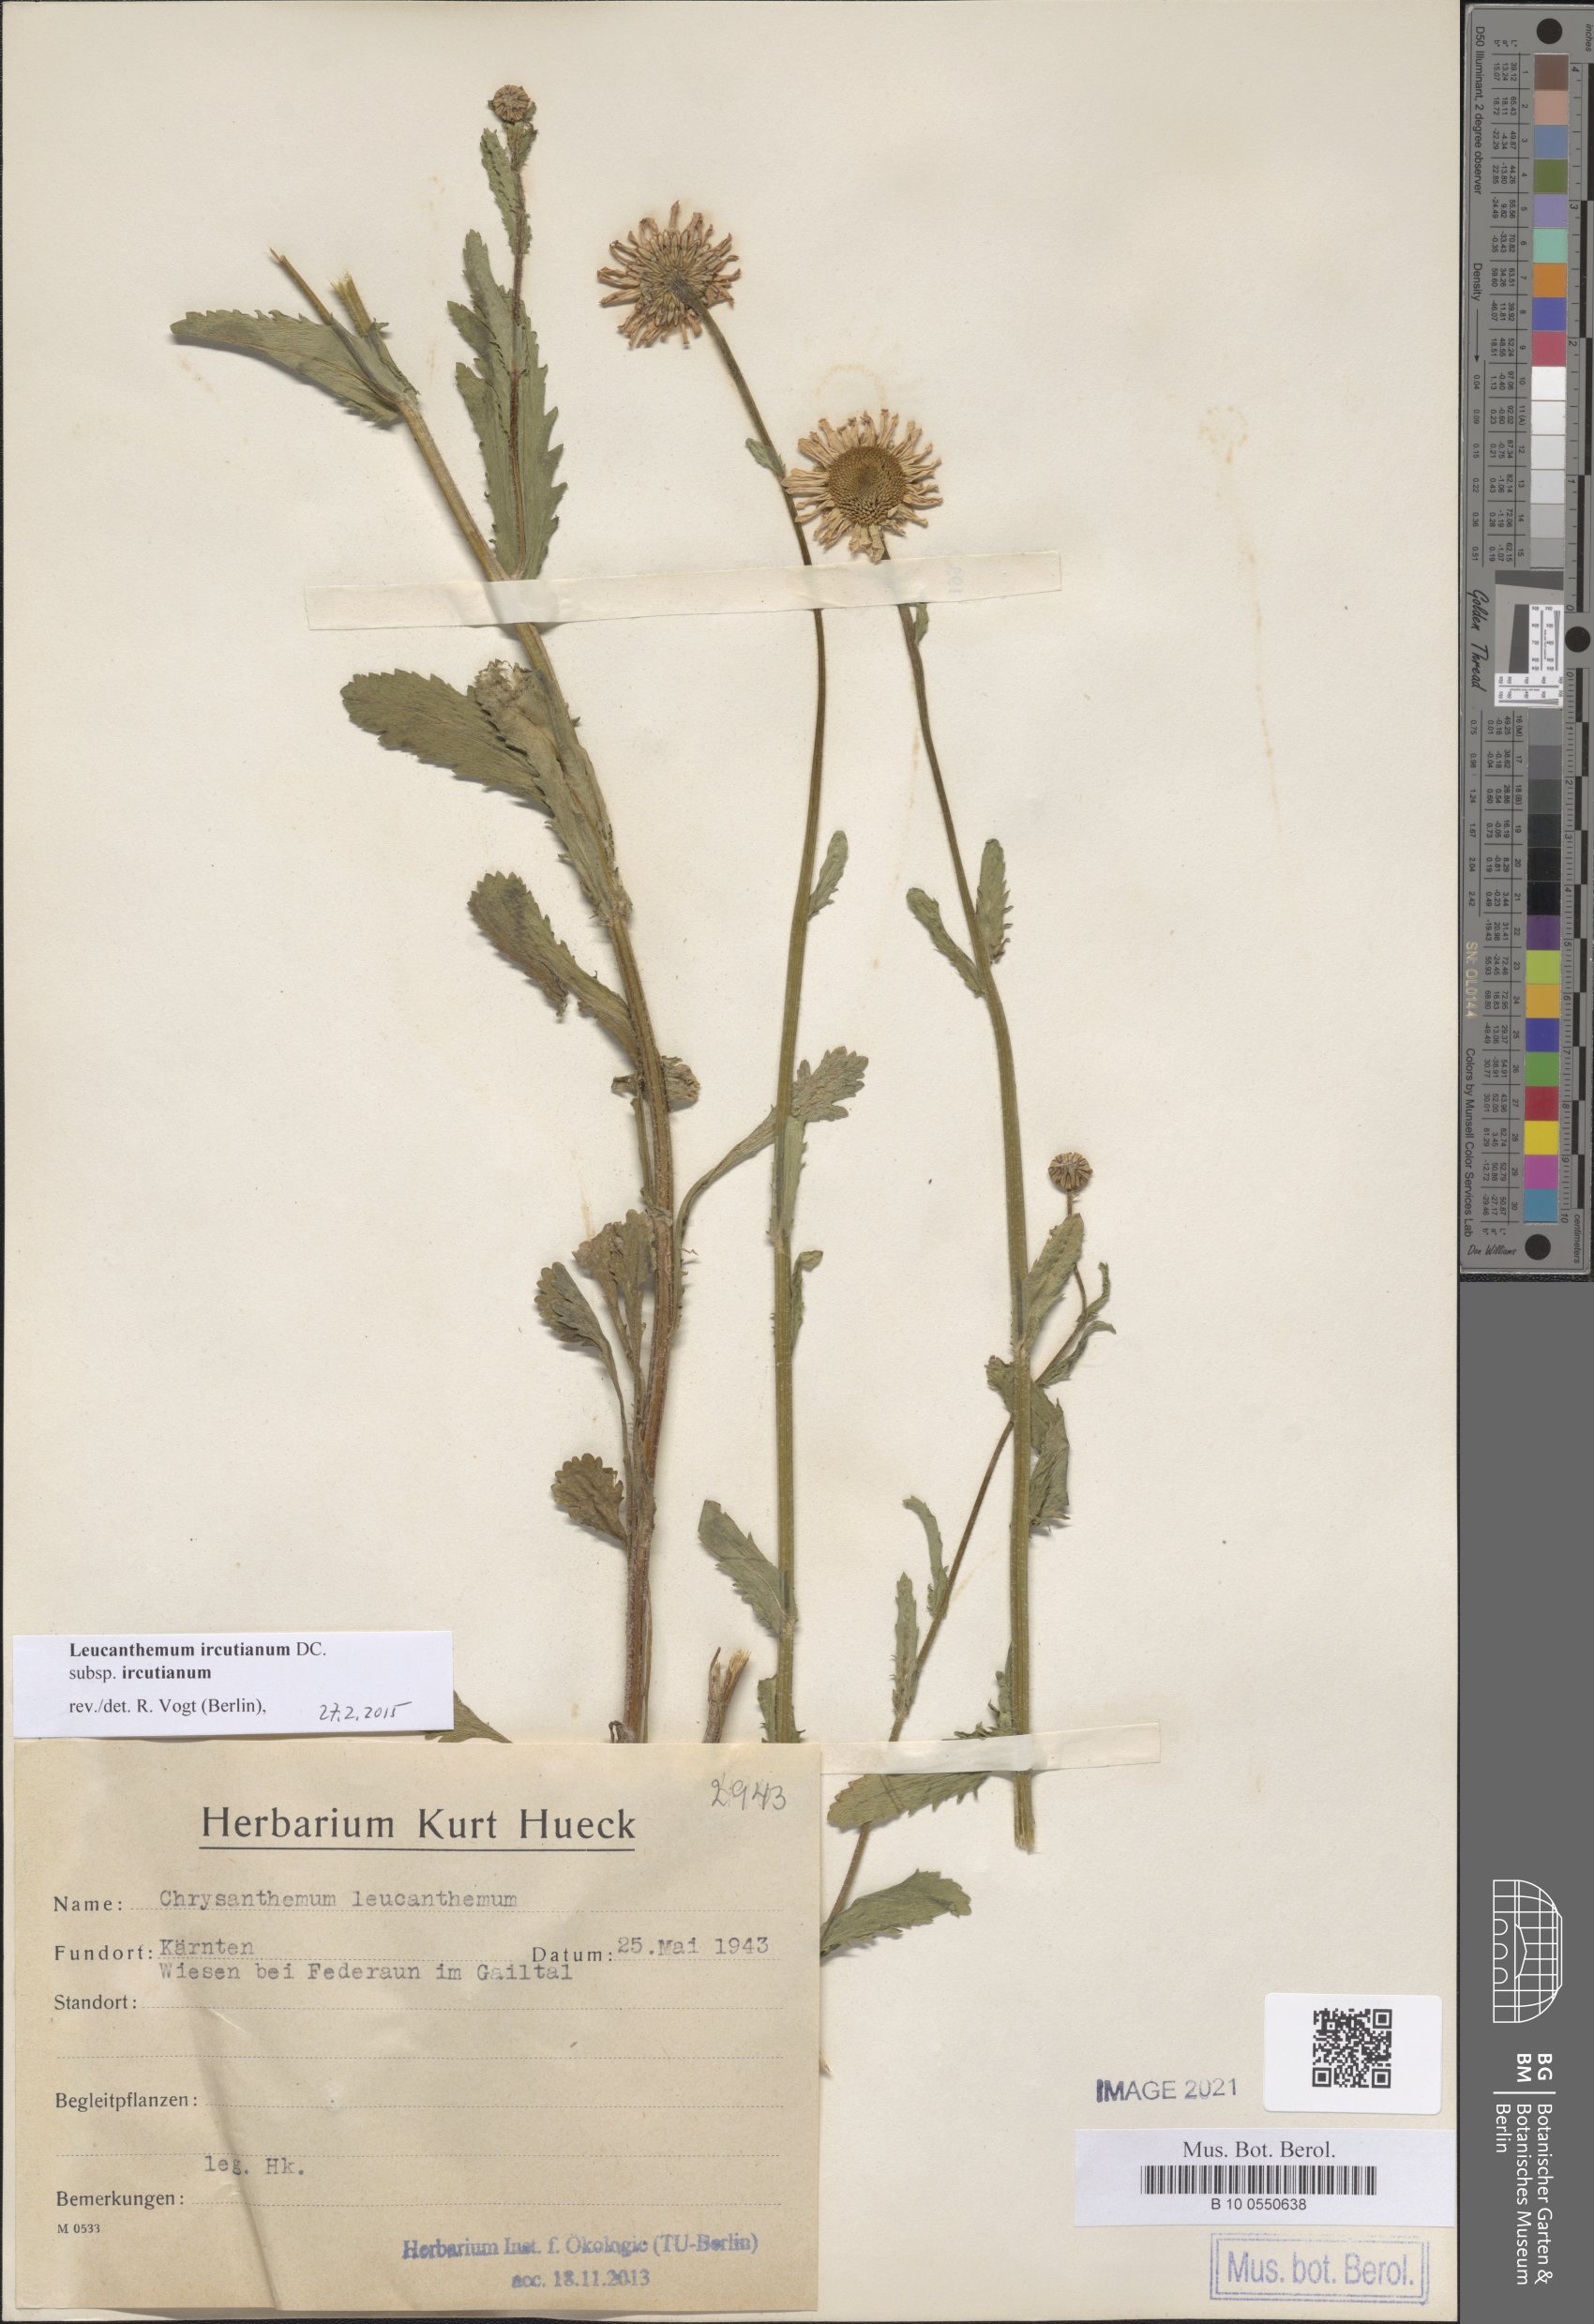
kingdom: Plantae
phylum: Tracheophyta
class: Magnoliopsida
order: Asterales
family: Asteraceae
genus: Leucanthemum
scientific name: Leucanthemum ircutianum
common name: Daisy
